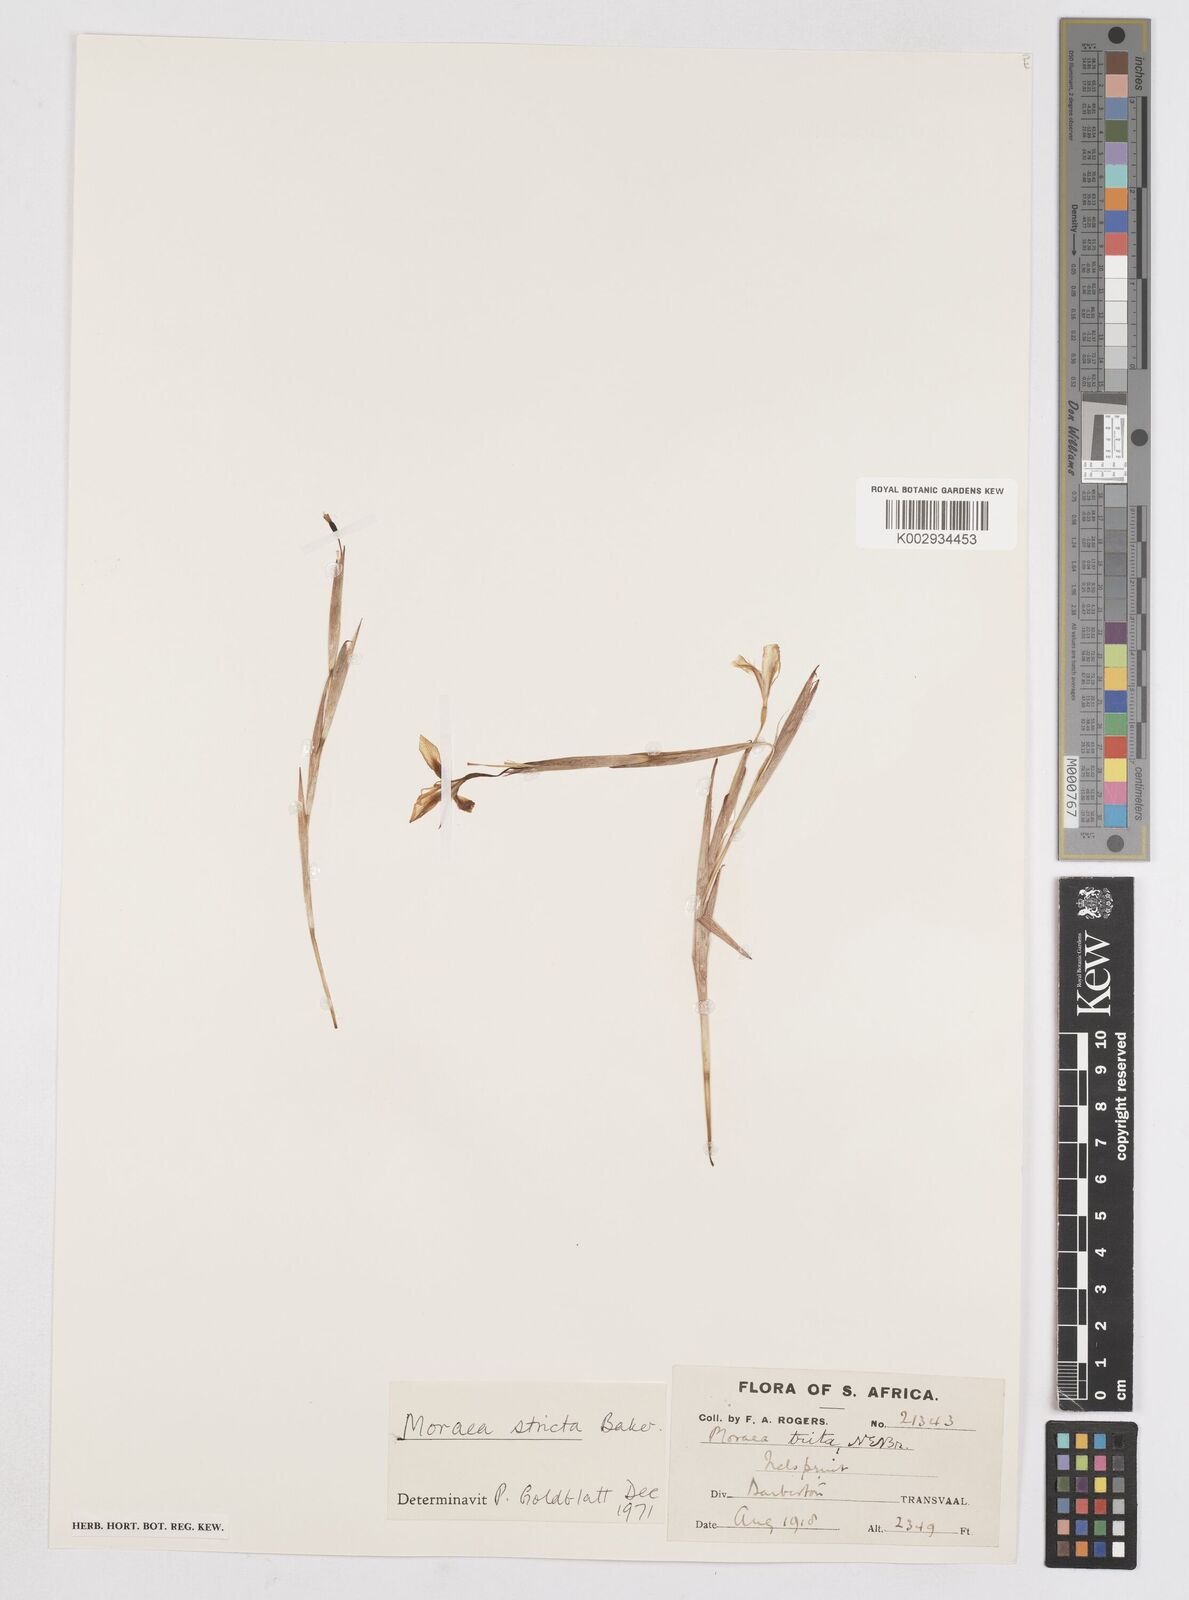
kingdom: Plantae
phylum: Tracheophyta
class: Liliopsida
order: Asparagales
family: Iridaceae
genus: Moraea
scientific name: Moraea stricta
